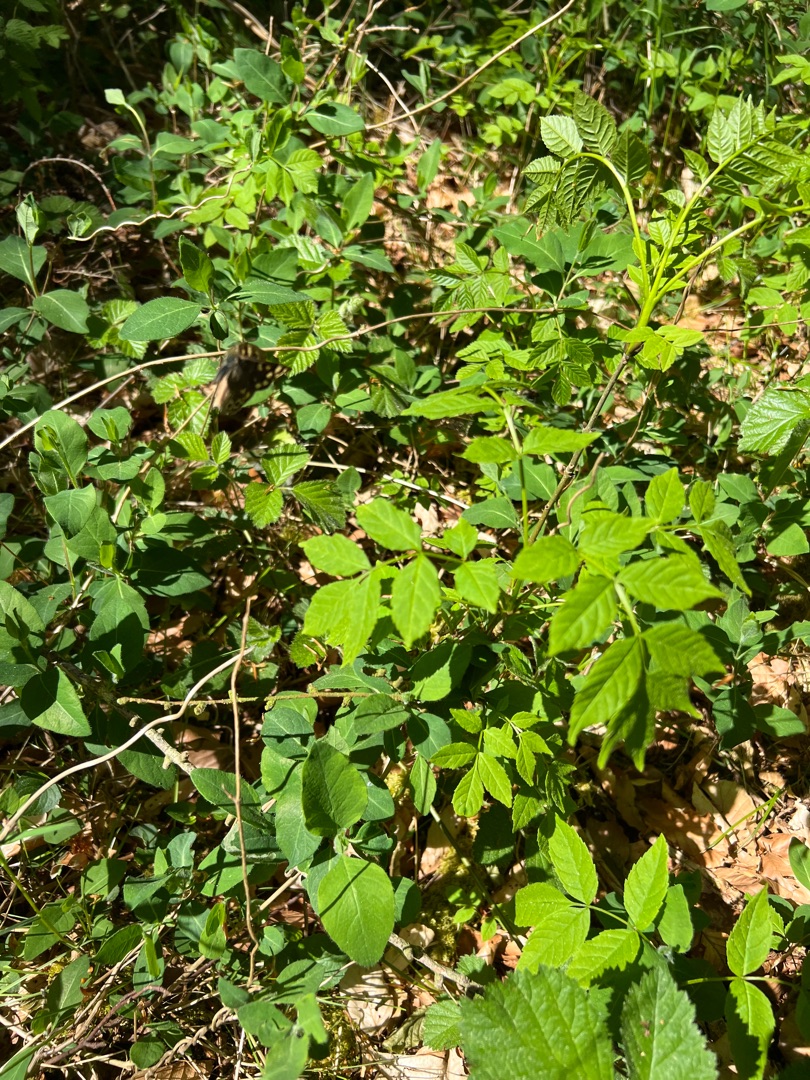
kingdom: Plantae
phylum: Tracheophyta
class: Magnoliopsida
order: Lamiales
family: Oleaceae
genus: Fraxinus
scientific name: Fraxinus excelsior
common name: Ask
